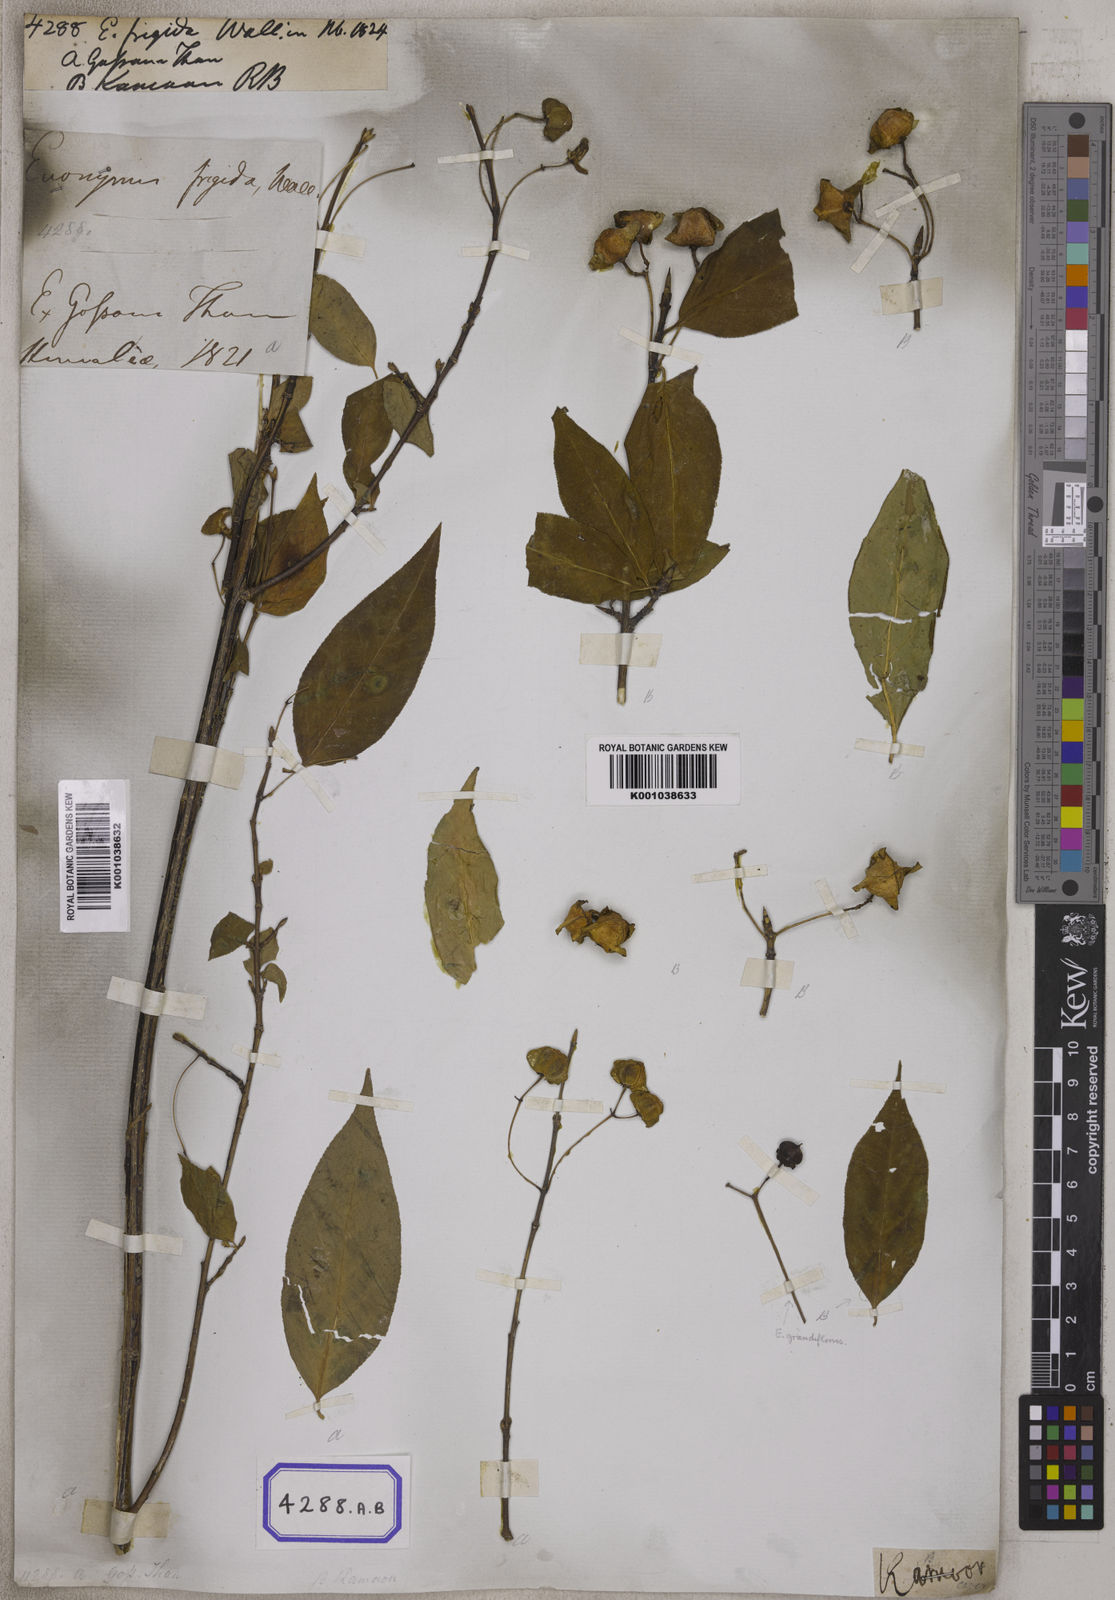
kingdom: Plantae
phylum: Tracheophyta
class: Magnoliopsida
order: Celastrales
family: Celastraceae
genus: Euonymus
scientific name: Euonymus frigidus
